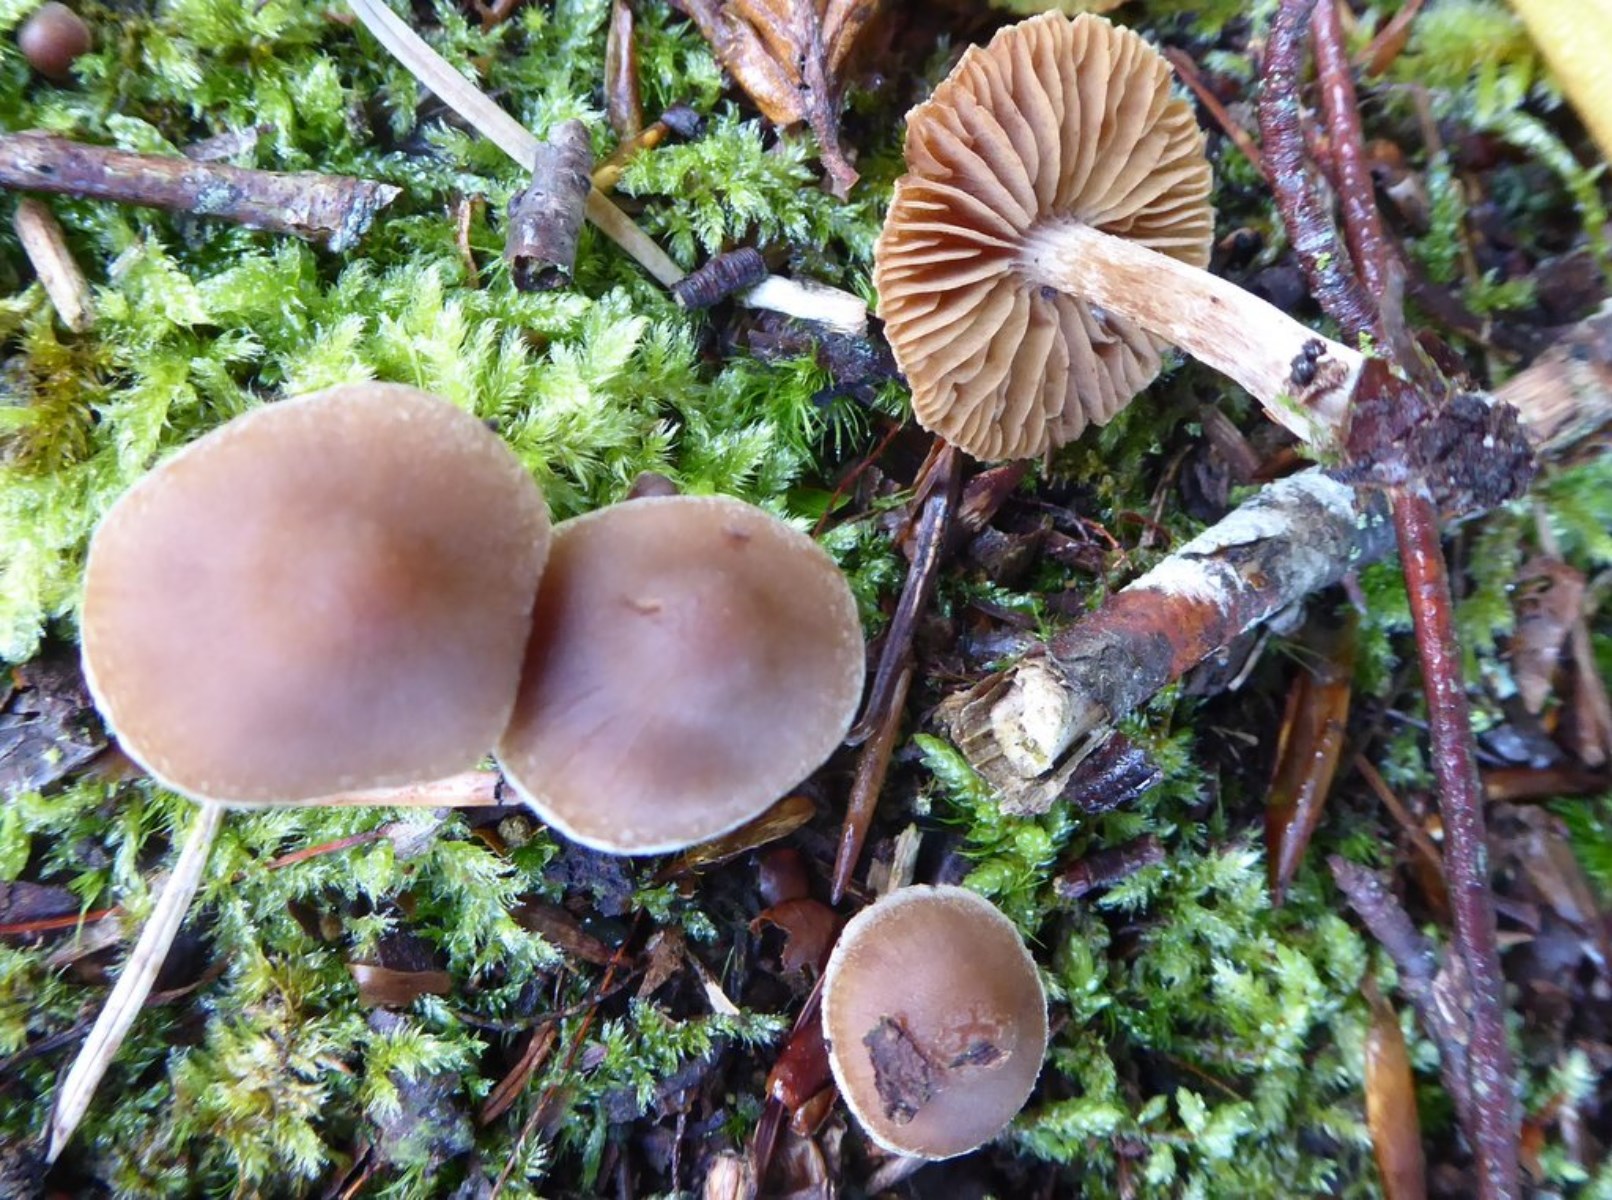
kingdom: Fungi
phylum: Basidiomycota
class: Agaricomycetes
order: Agaricales
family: Cortinariaceae
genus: Cortinarius
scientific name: Cortinarius
